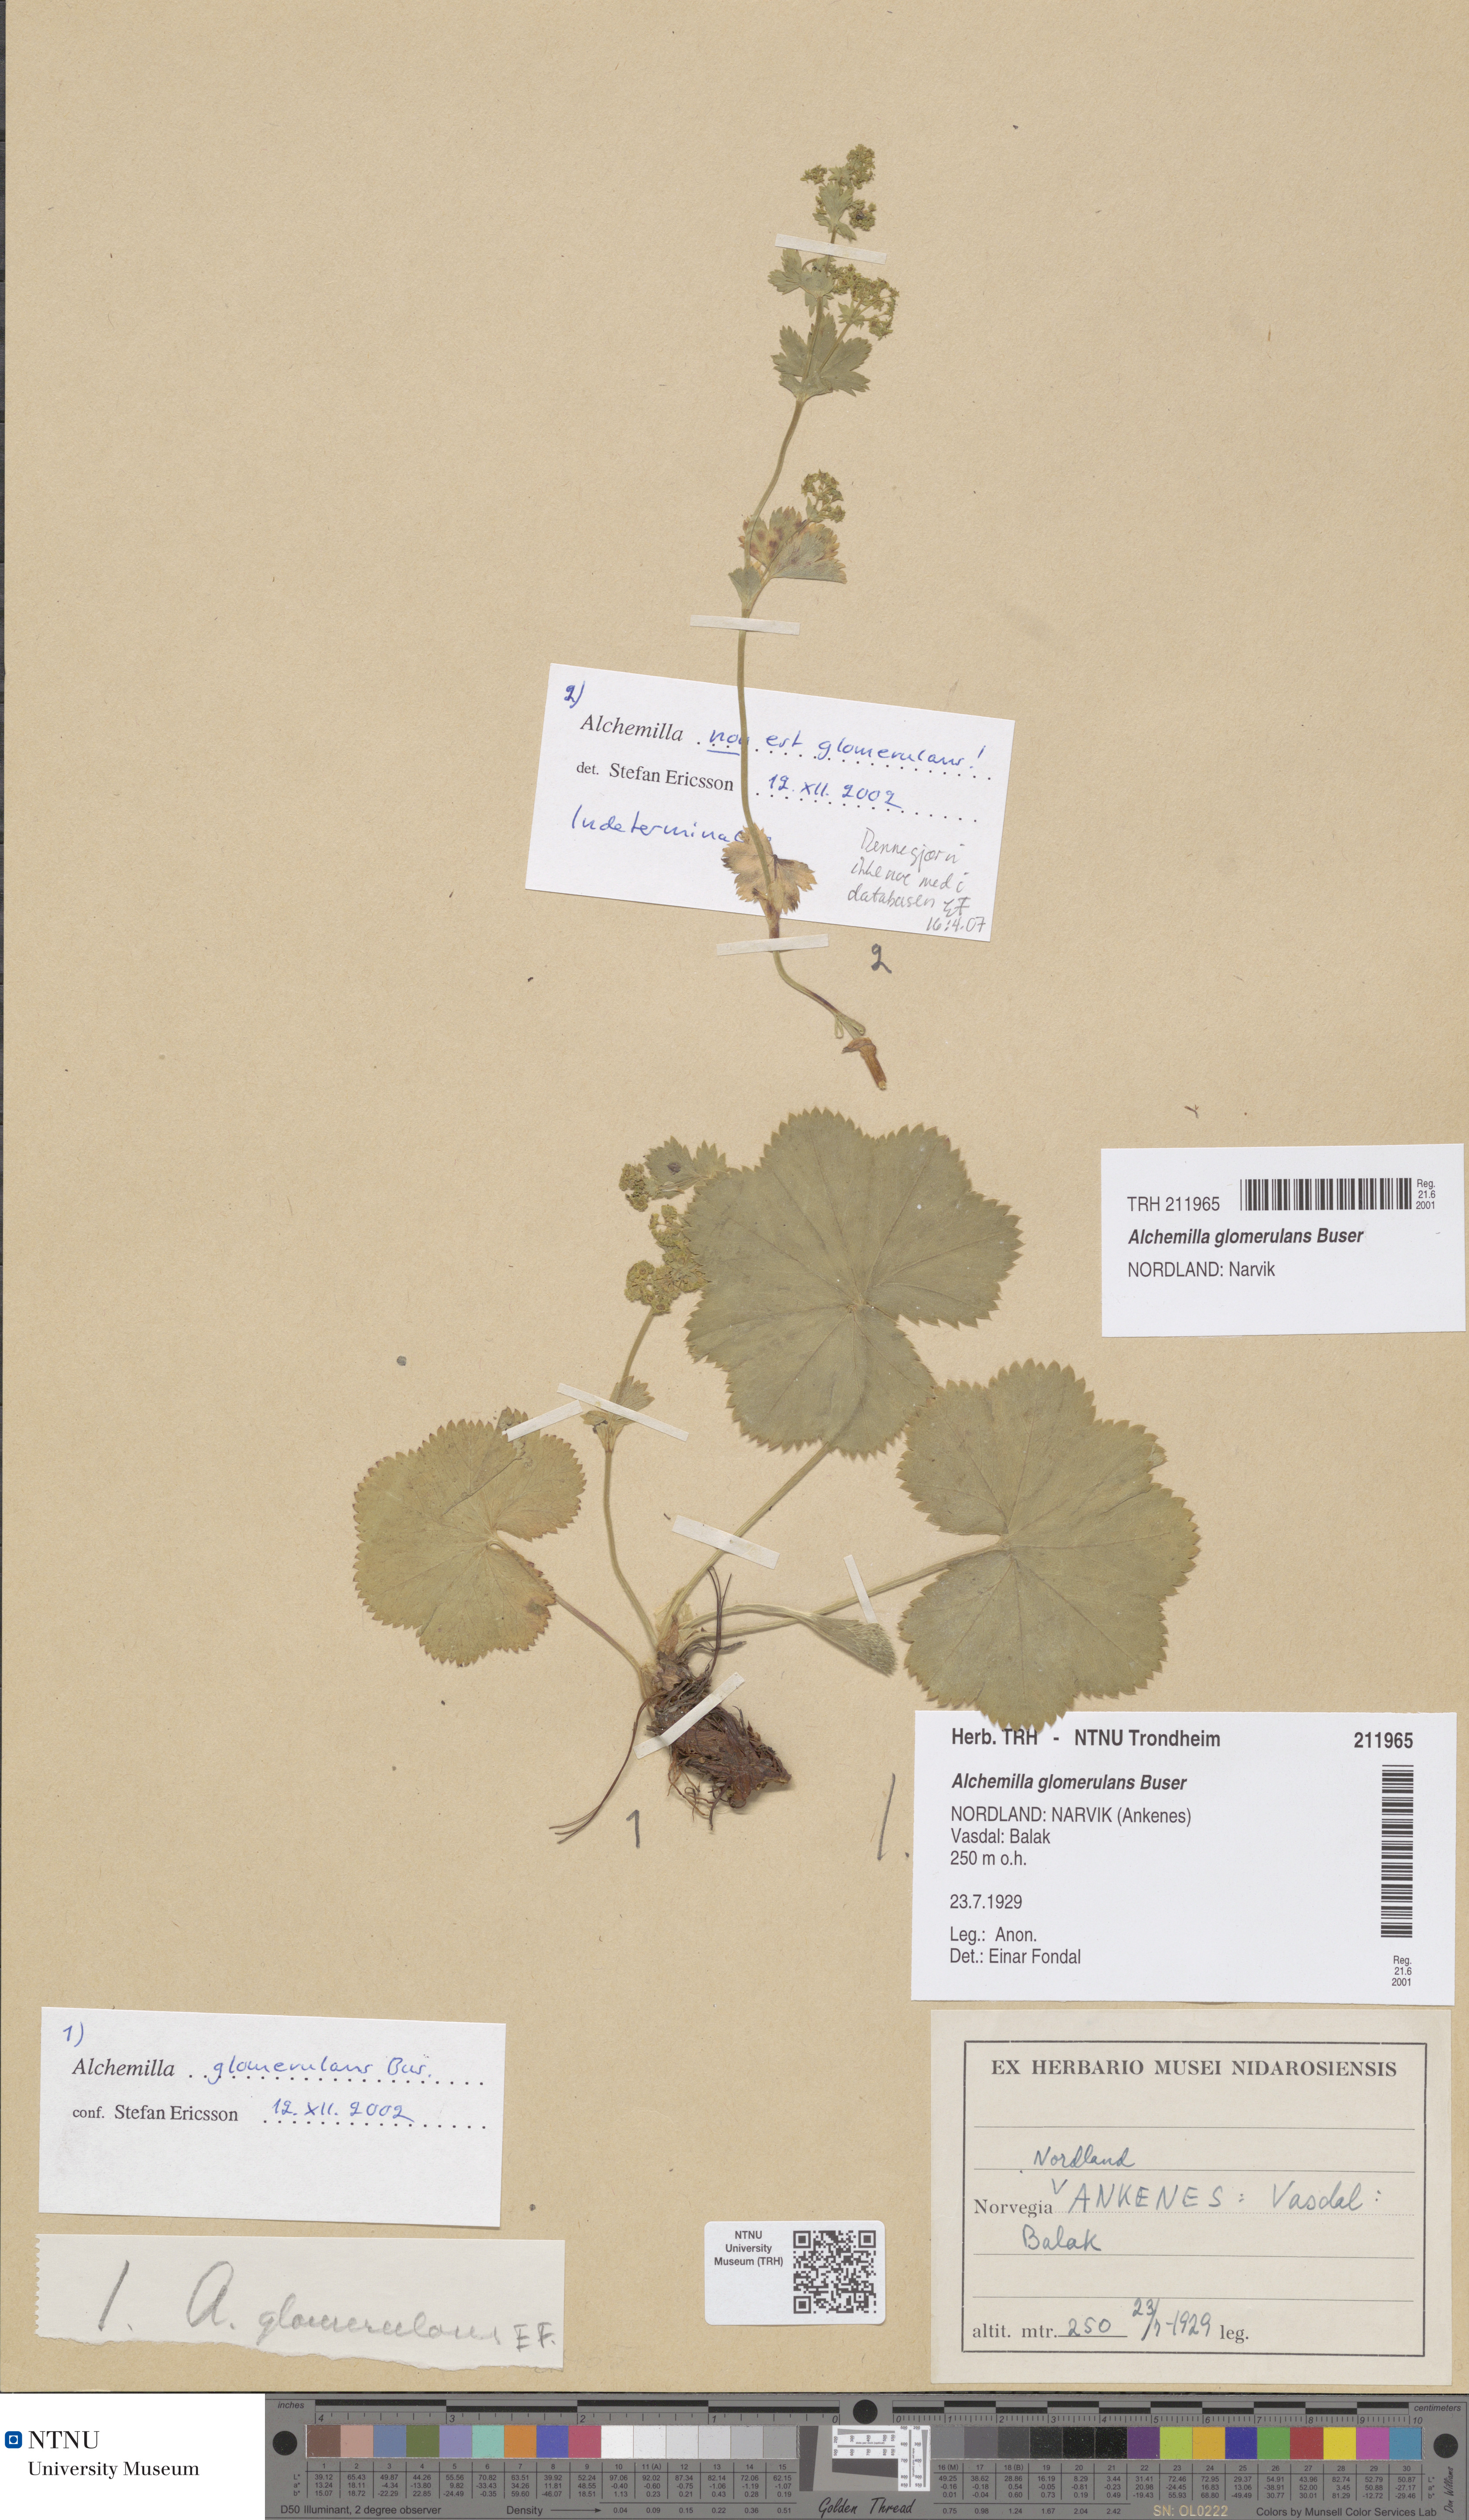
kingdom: Plantae
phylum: Tracheophyta
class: Magnoliopsida
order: Rosales
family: Rosaceae
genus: Alchemilla
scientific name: Alchemilla glomerulans
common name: Clustered lady's mantle
